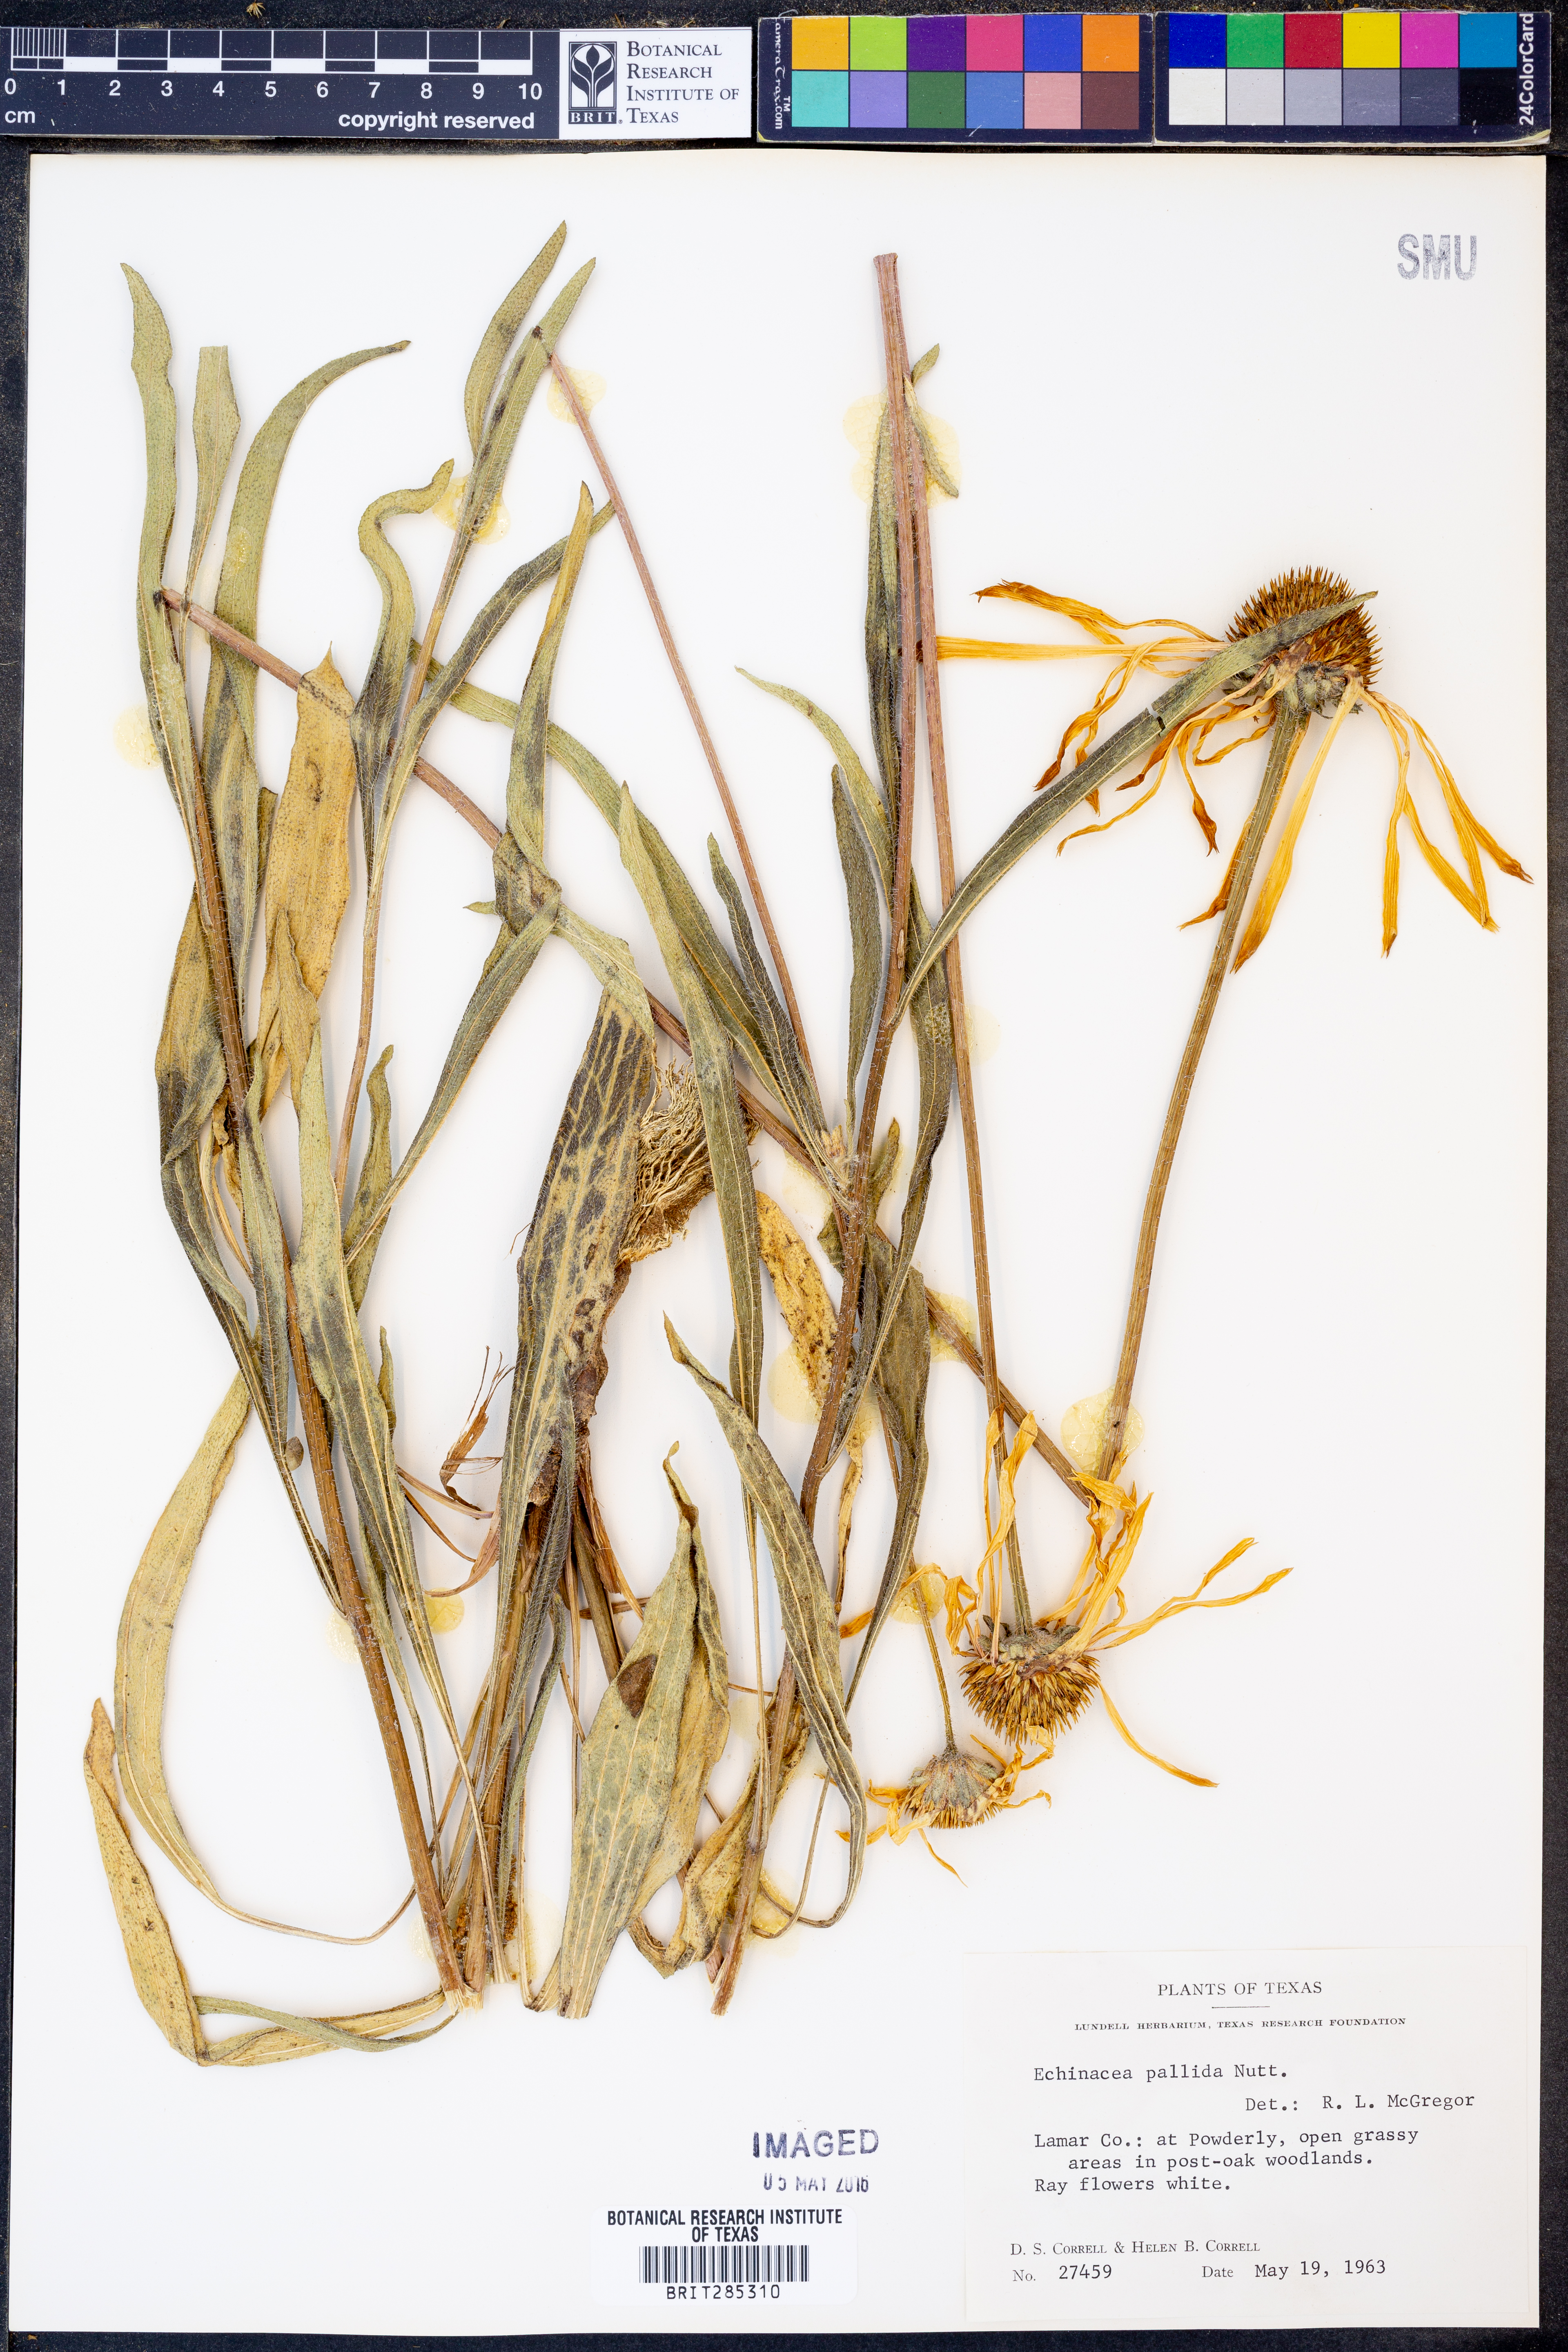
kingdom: Plantae
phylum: Tracheophyta
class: Magnoliopsida
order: Asterales
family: Asteraceae
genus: Echinacea
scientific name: Echinacea pallida
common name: Pale echinacea
